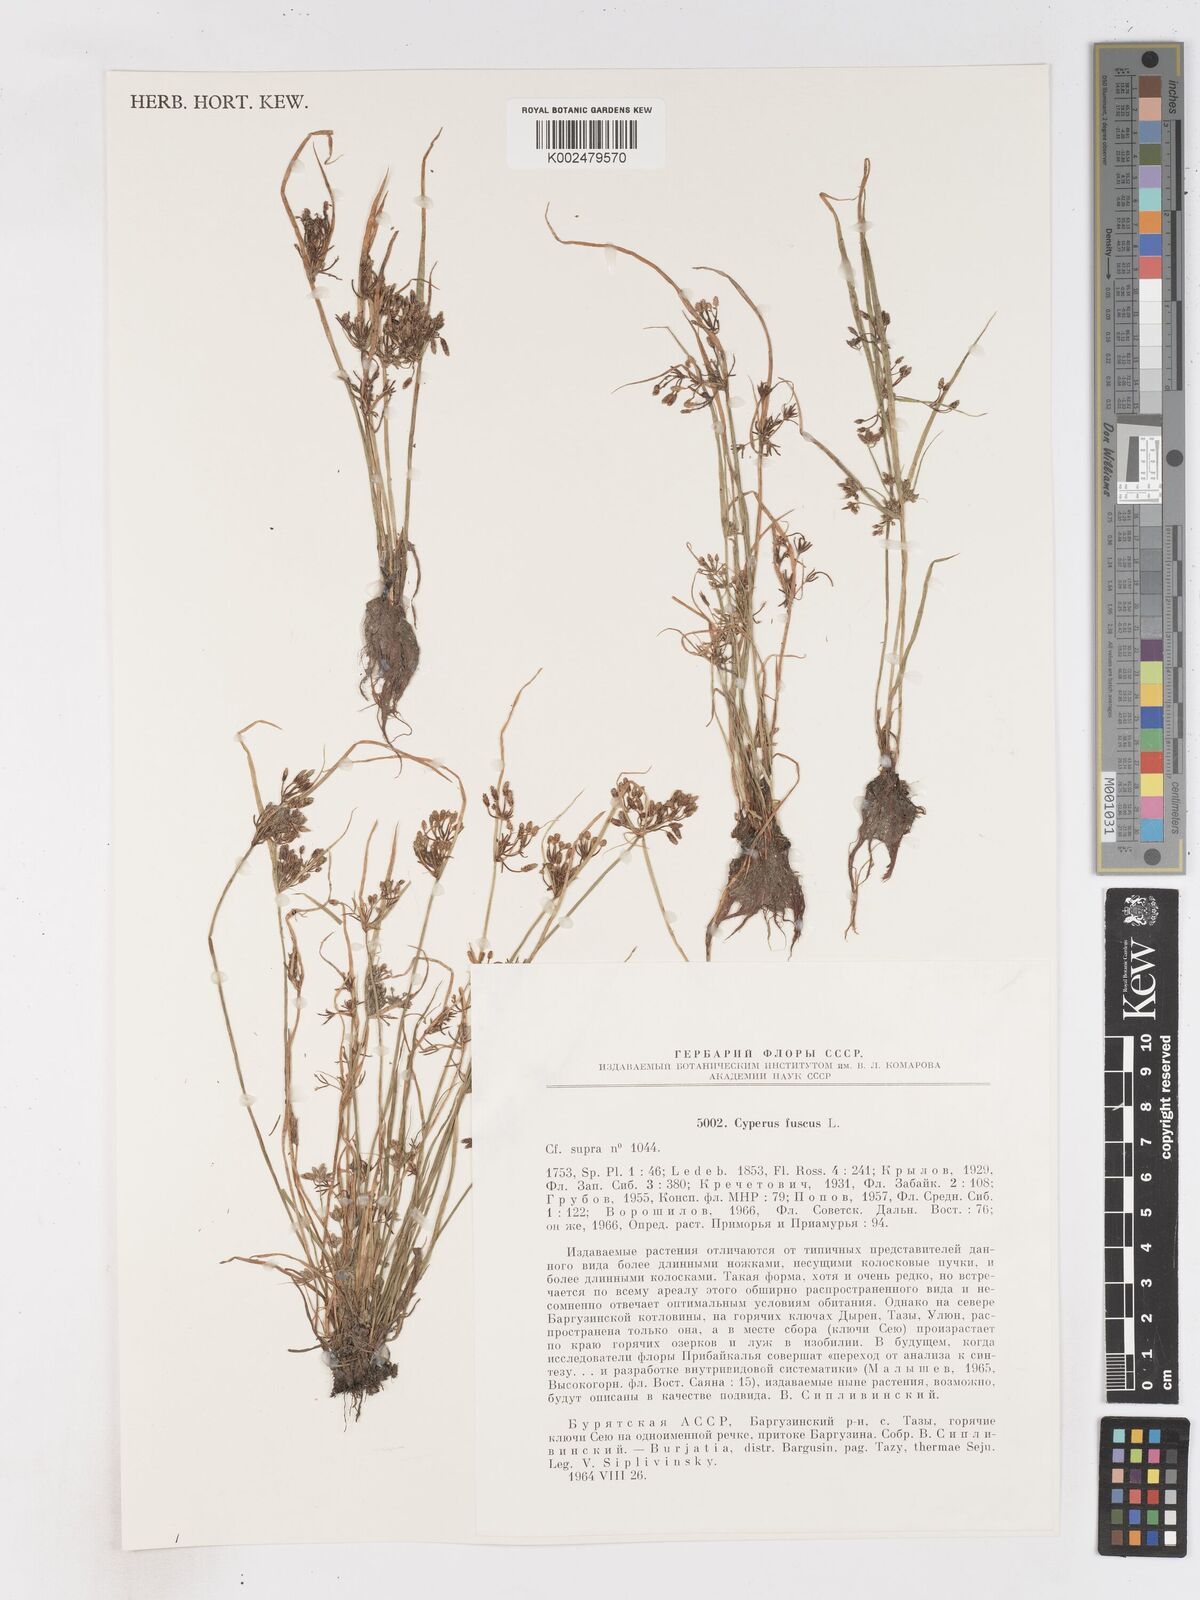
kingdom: Plantae
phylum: Tracheophyta
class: Liliopsida
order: Poales
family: Cyperaceae
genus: Cyperus
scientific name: Cyperus fuscus
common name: Brown galingale
